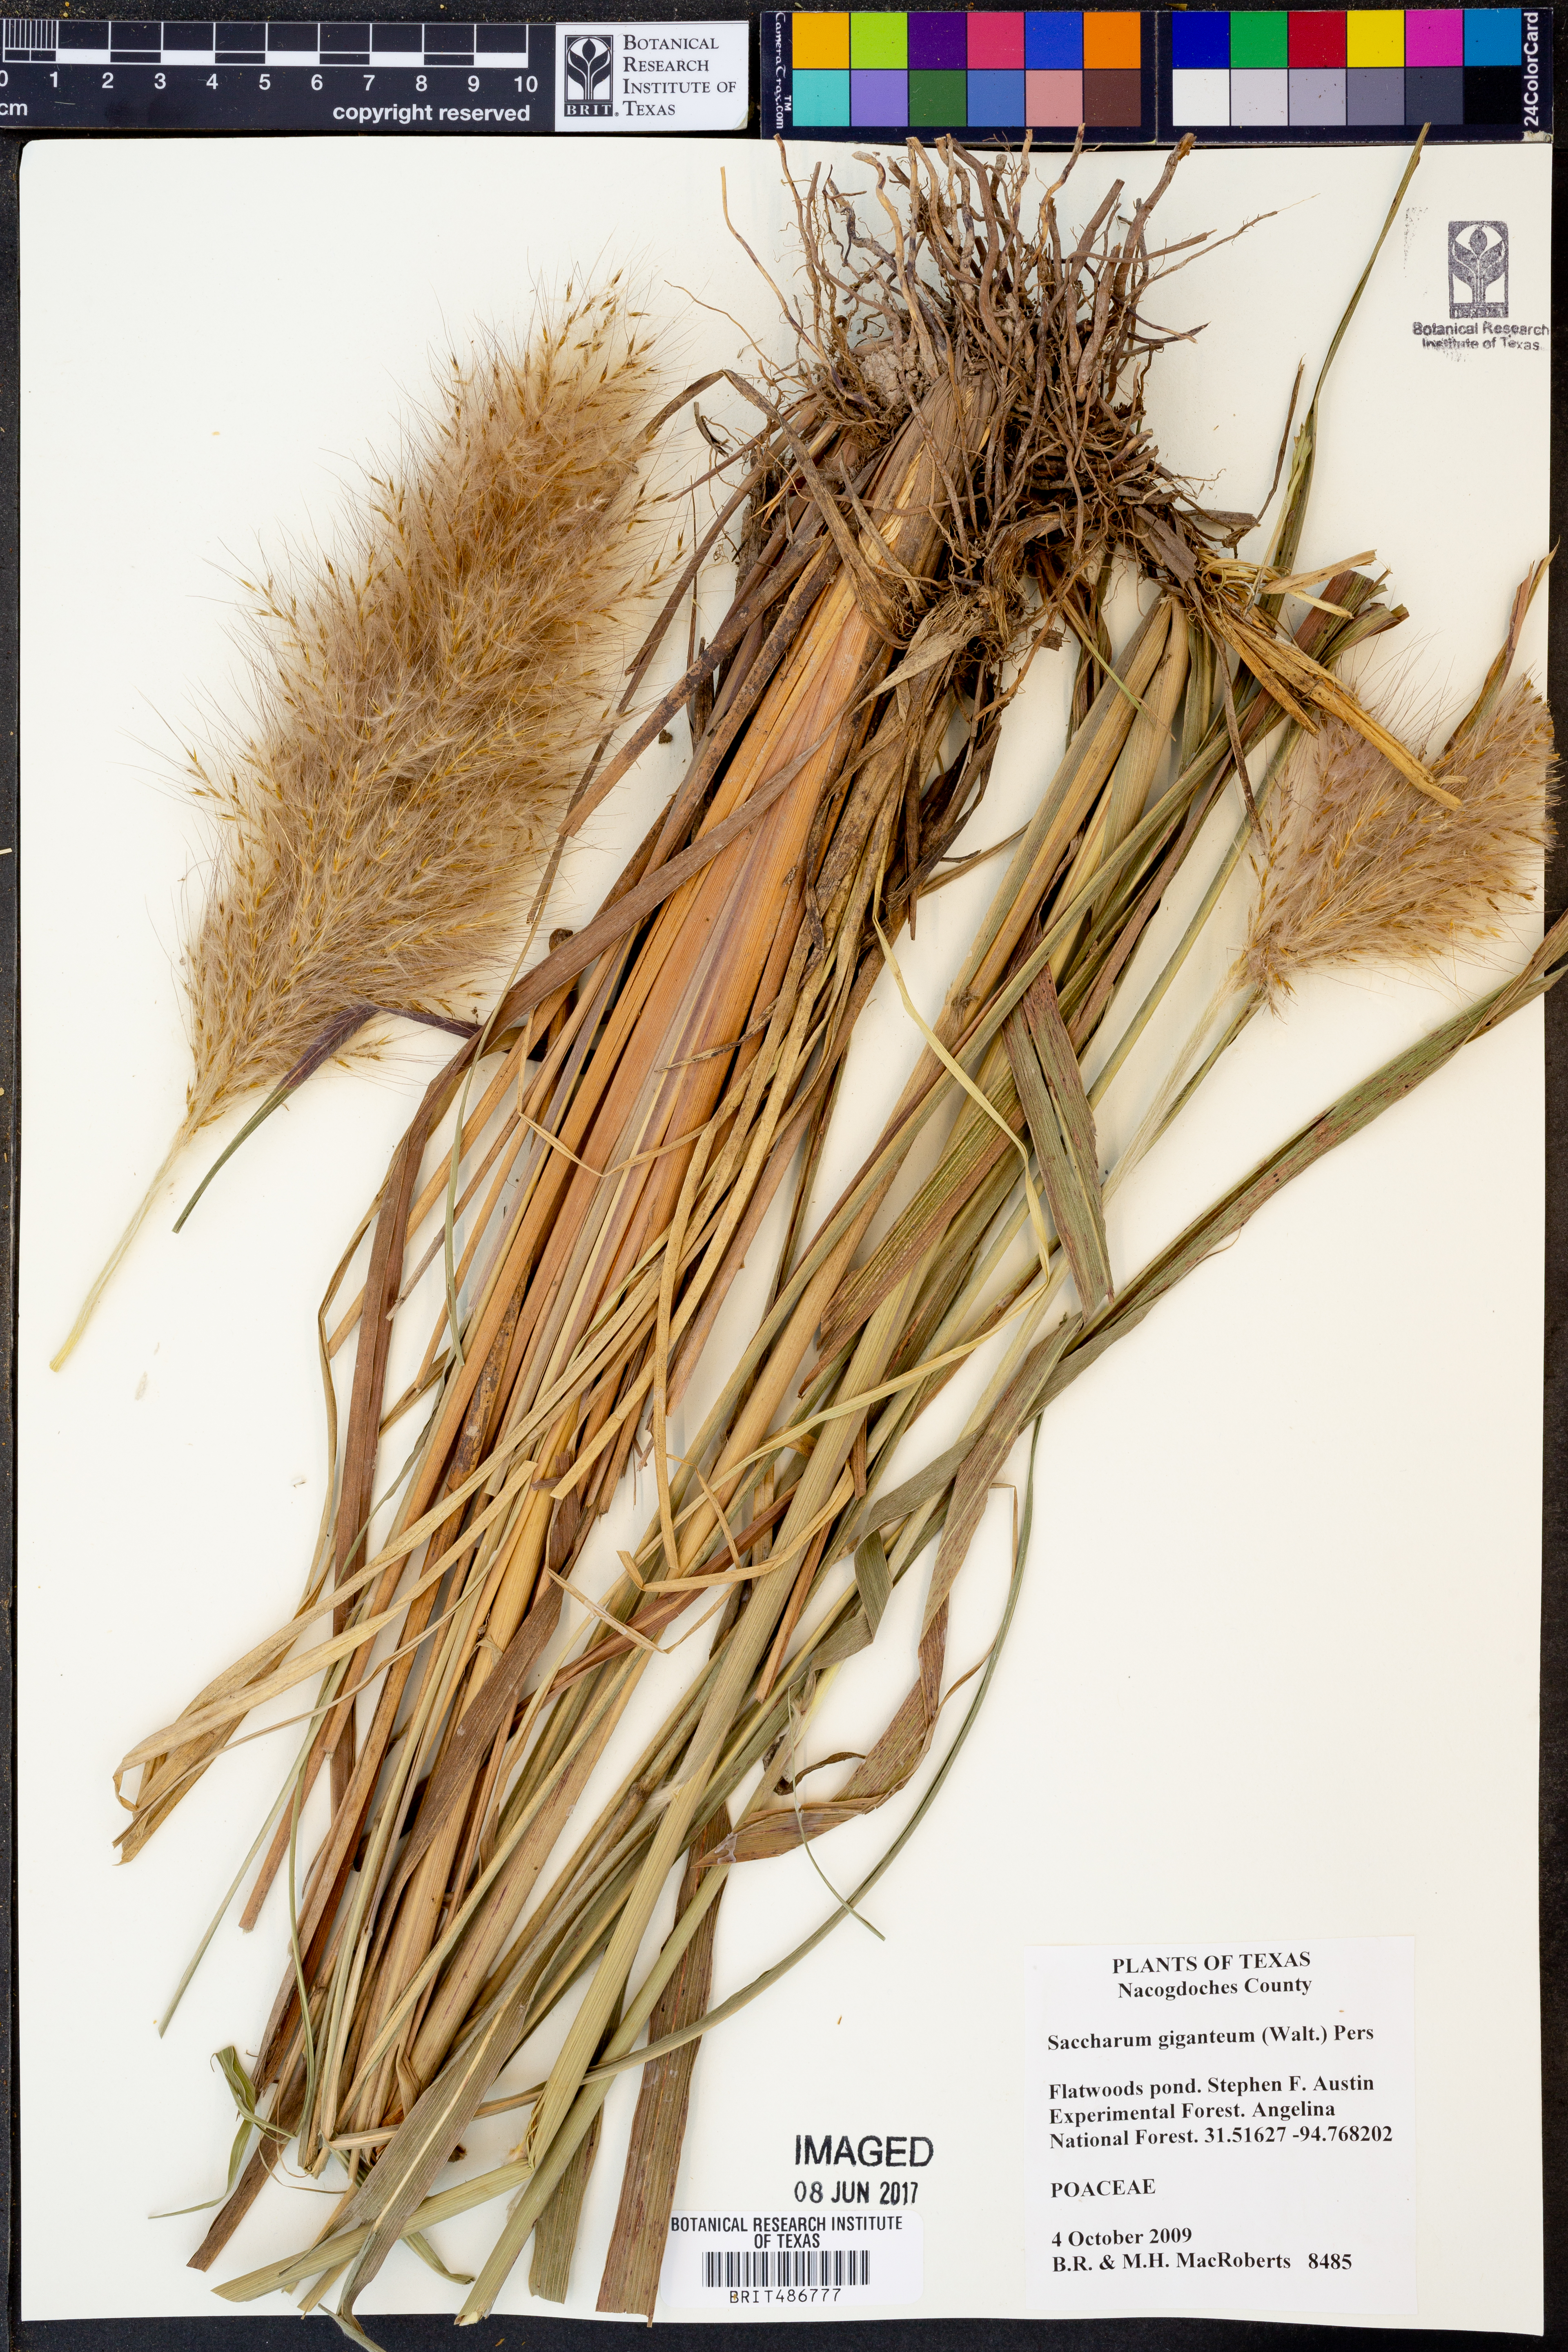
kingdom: Plantae
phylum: Tracheophyta
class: Liliopsida
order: Poales
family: Poaceae
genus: Erianthus
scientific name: Erianthus giganteus
